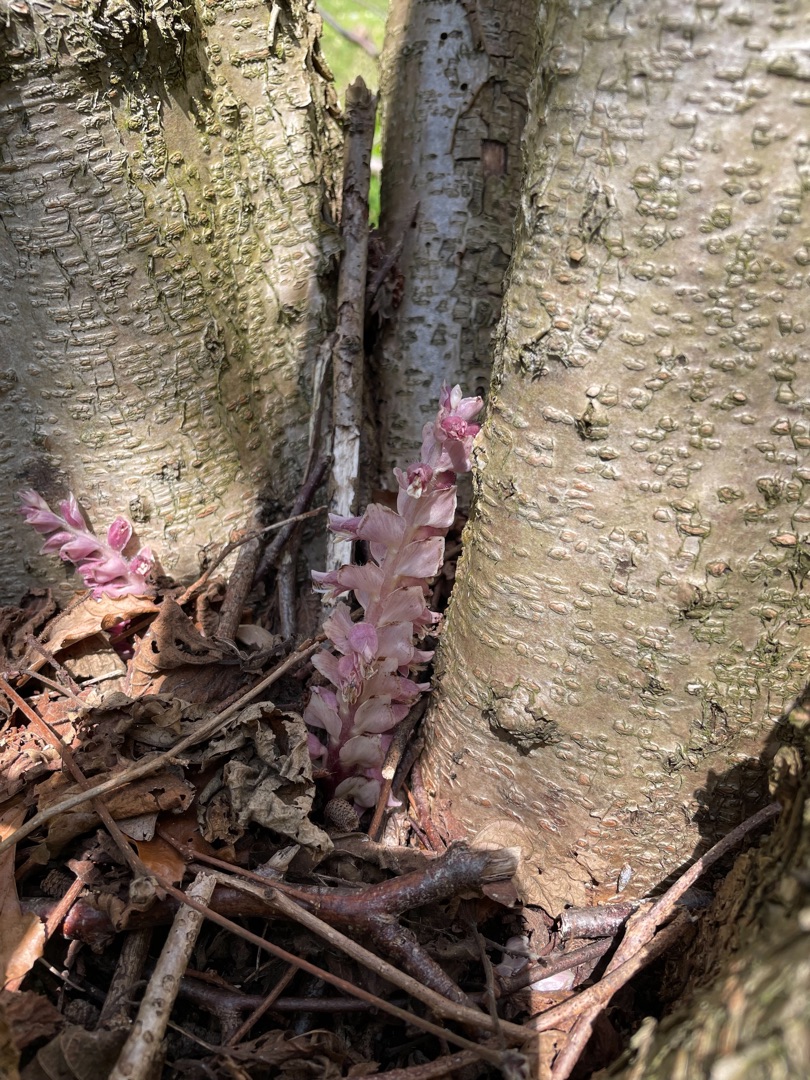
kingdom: Plantae
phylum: Tracheophyta
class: Magnoliopsida
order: Lamiales
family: Orobanchaceae
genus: Lathraea
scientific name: Lathraea squamaria
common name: Skælrod
